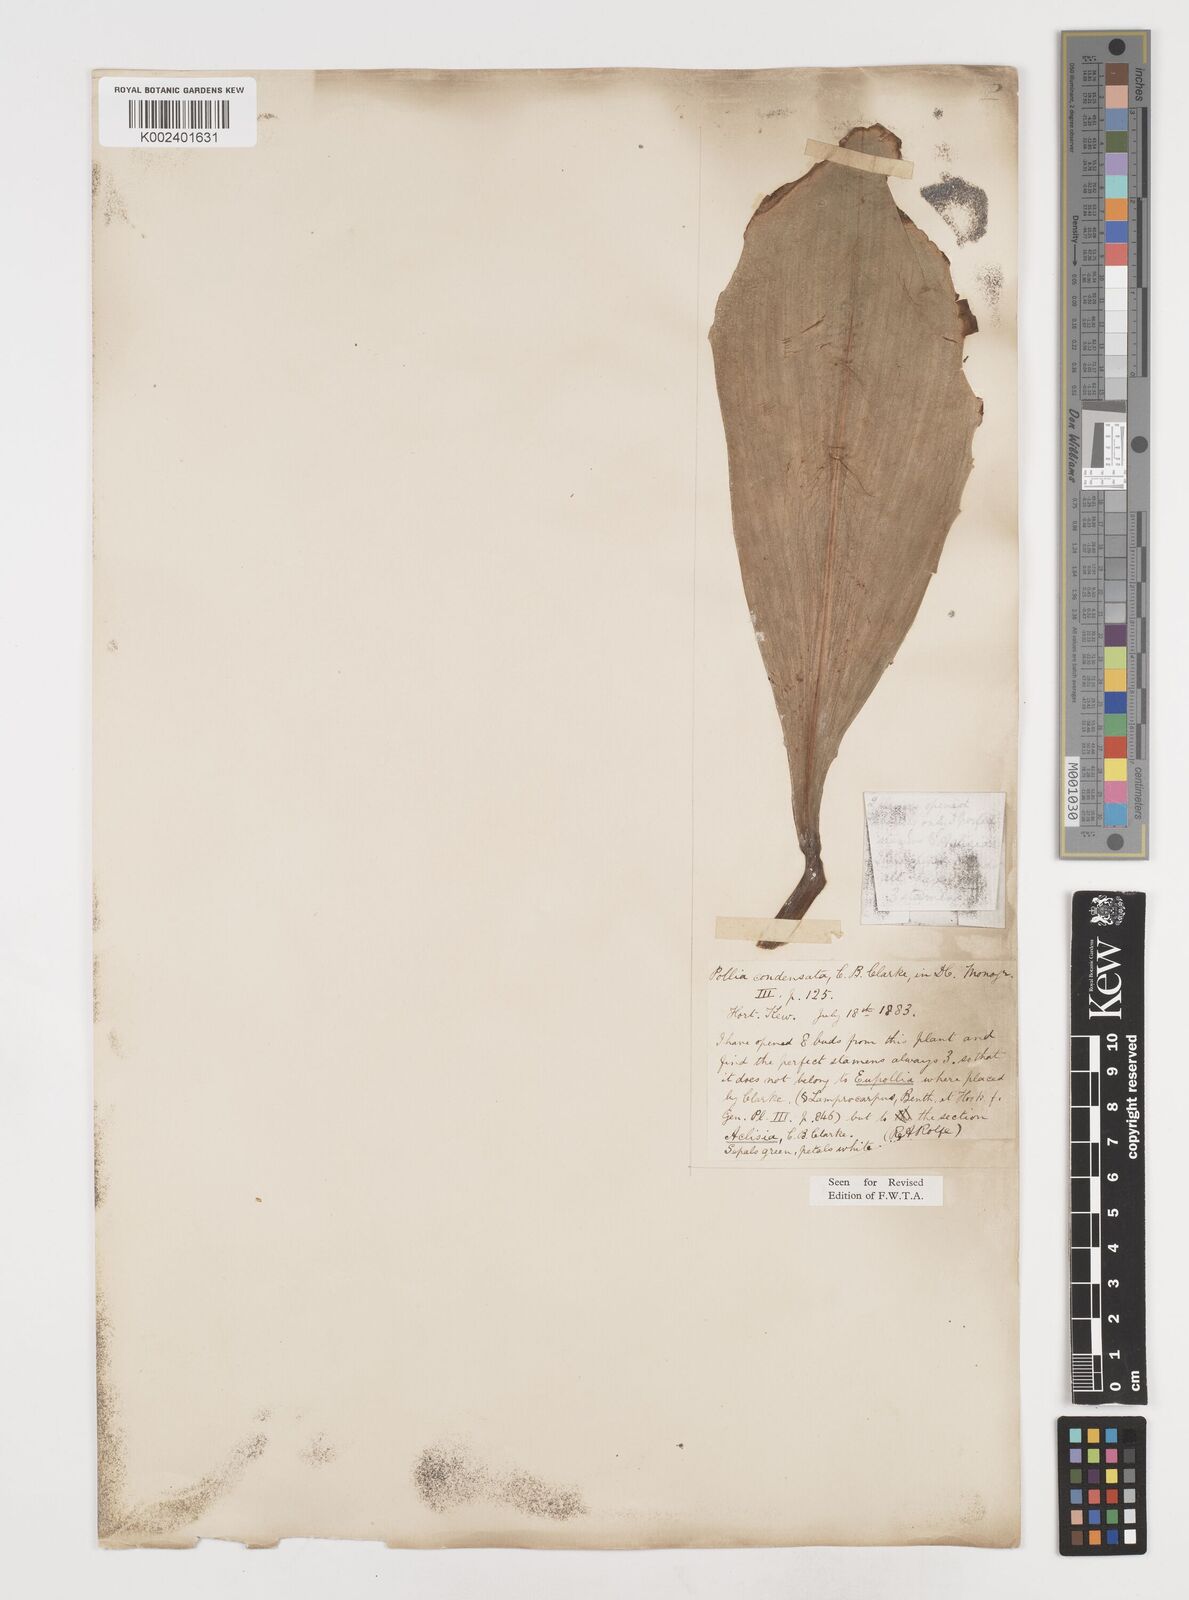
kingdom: Plantae
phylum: Tracheophyta
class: Liliopsida
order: Commelinales
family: Commelinaceae
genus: Pollia
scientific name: Pollia condensata
